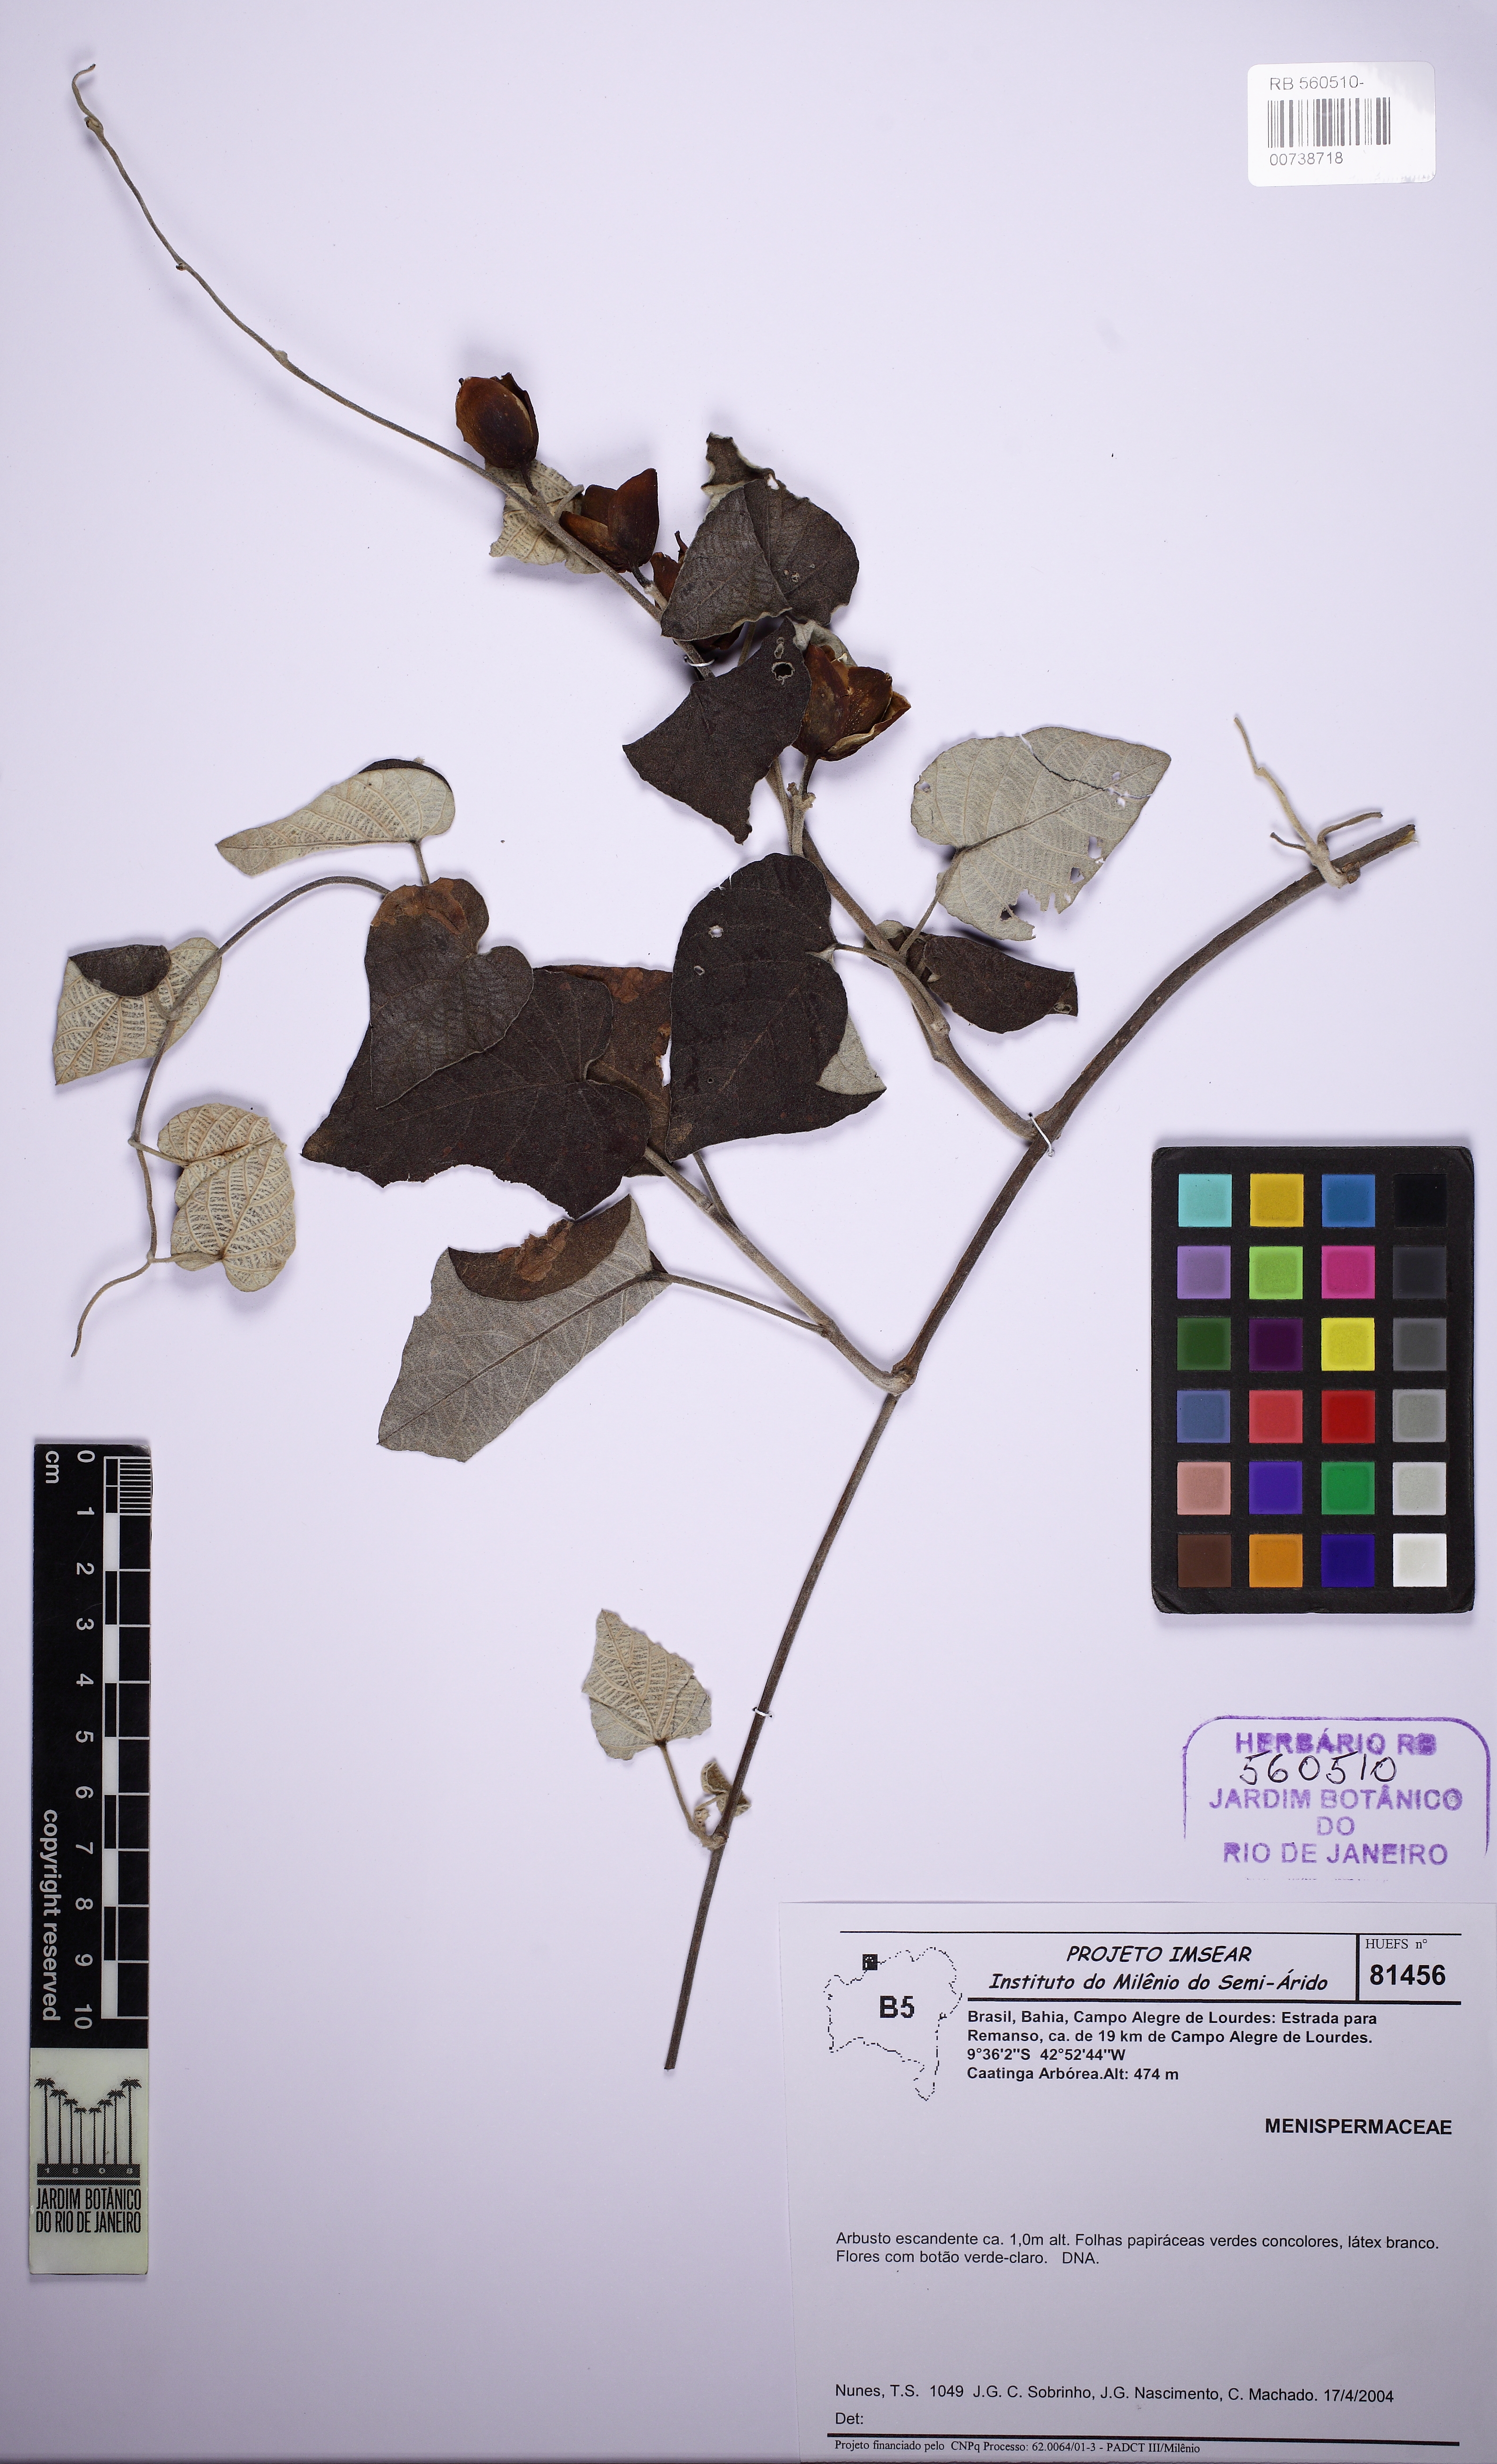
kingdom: Plantae
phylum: Tracheophyta
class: Magnoliopsida
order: Solanales
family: Convolvulaceae
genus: Ipomoea
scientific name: Ipomoea calyptrata
